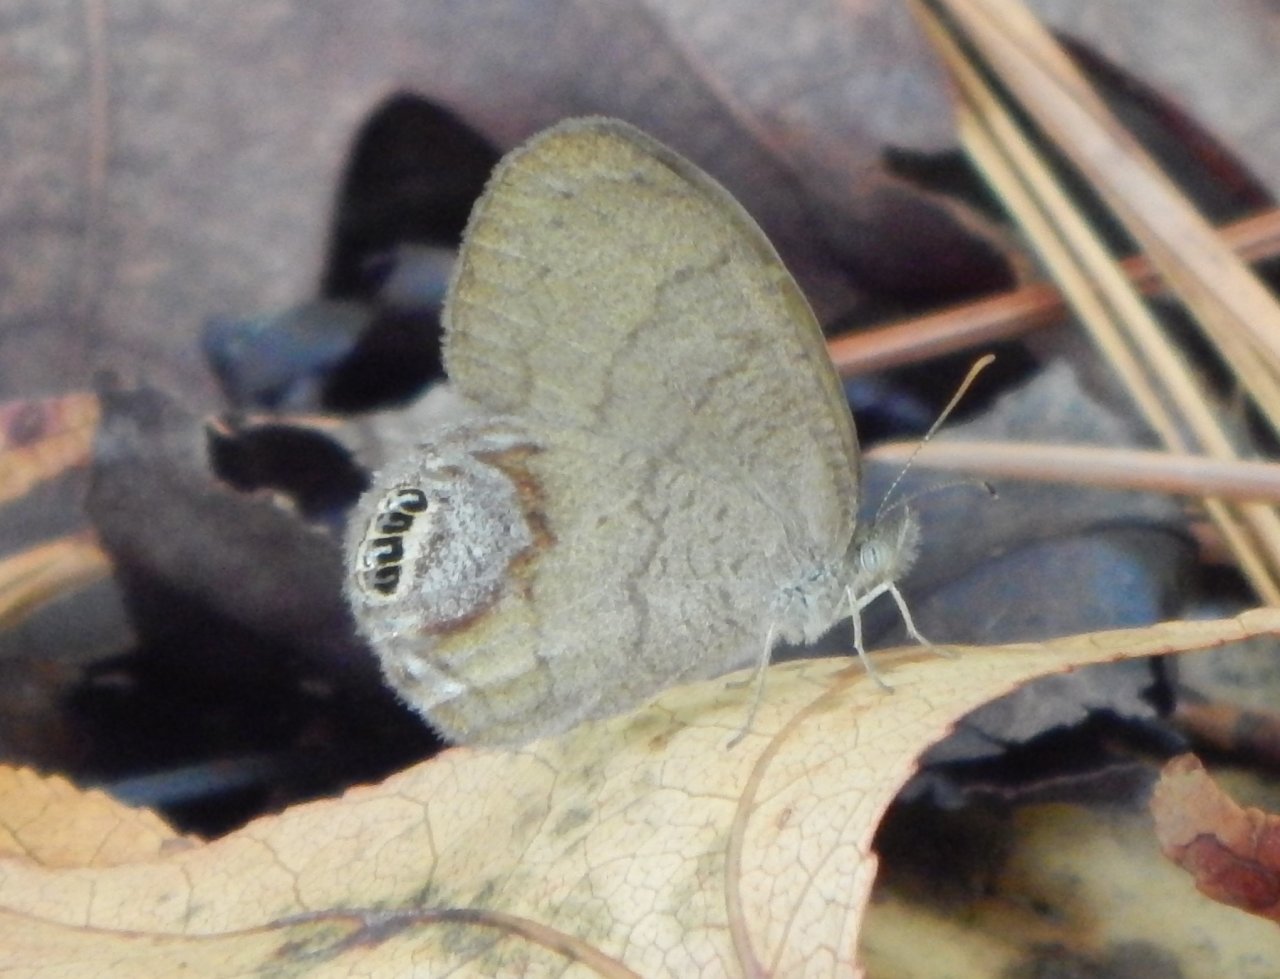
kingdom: Animalia
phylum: Arthropoda
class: Insecta
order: Lepidoptera
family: Nymphalidae
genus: Euptychia
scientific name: Euptychia cornelius
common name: Gemmed Satyr
